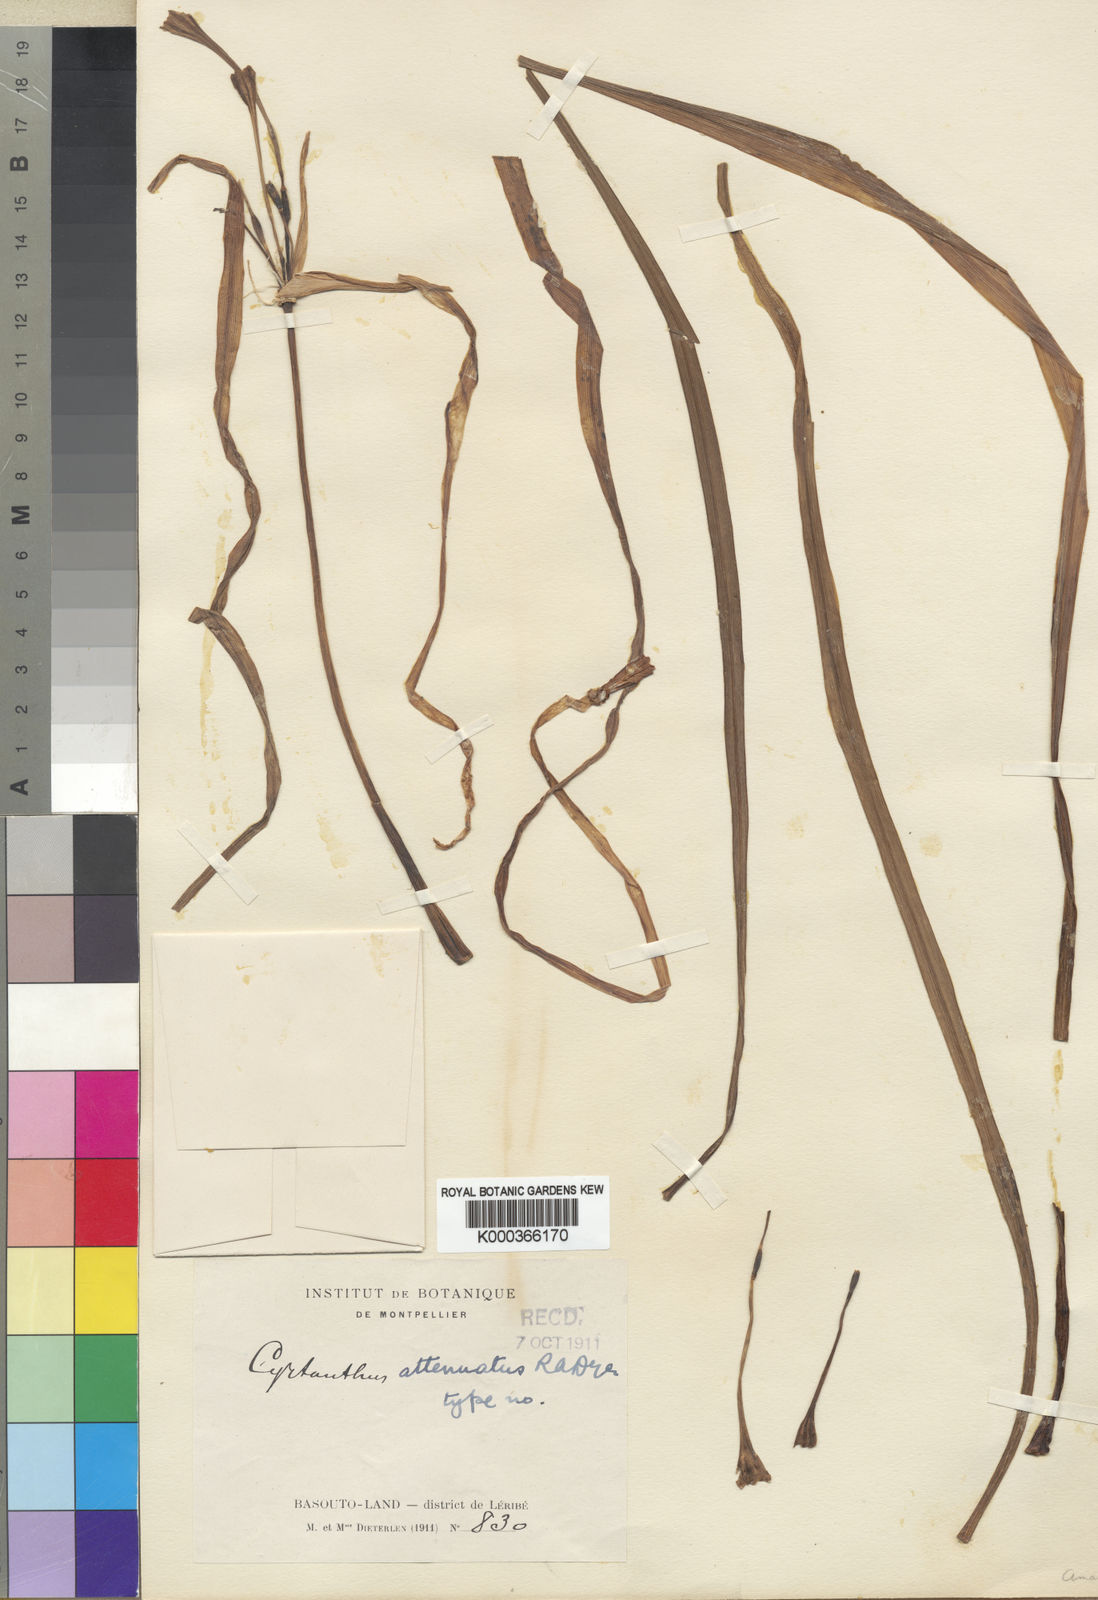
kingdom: Plantae
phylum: Tracheophyta
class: Liliopsida
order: Asparagales
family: Amaryllidaceae
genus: Cyrtanthus
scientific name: Cyrtanthus attenuatus
